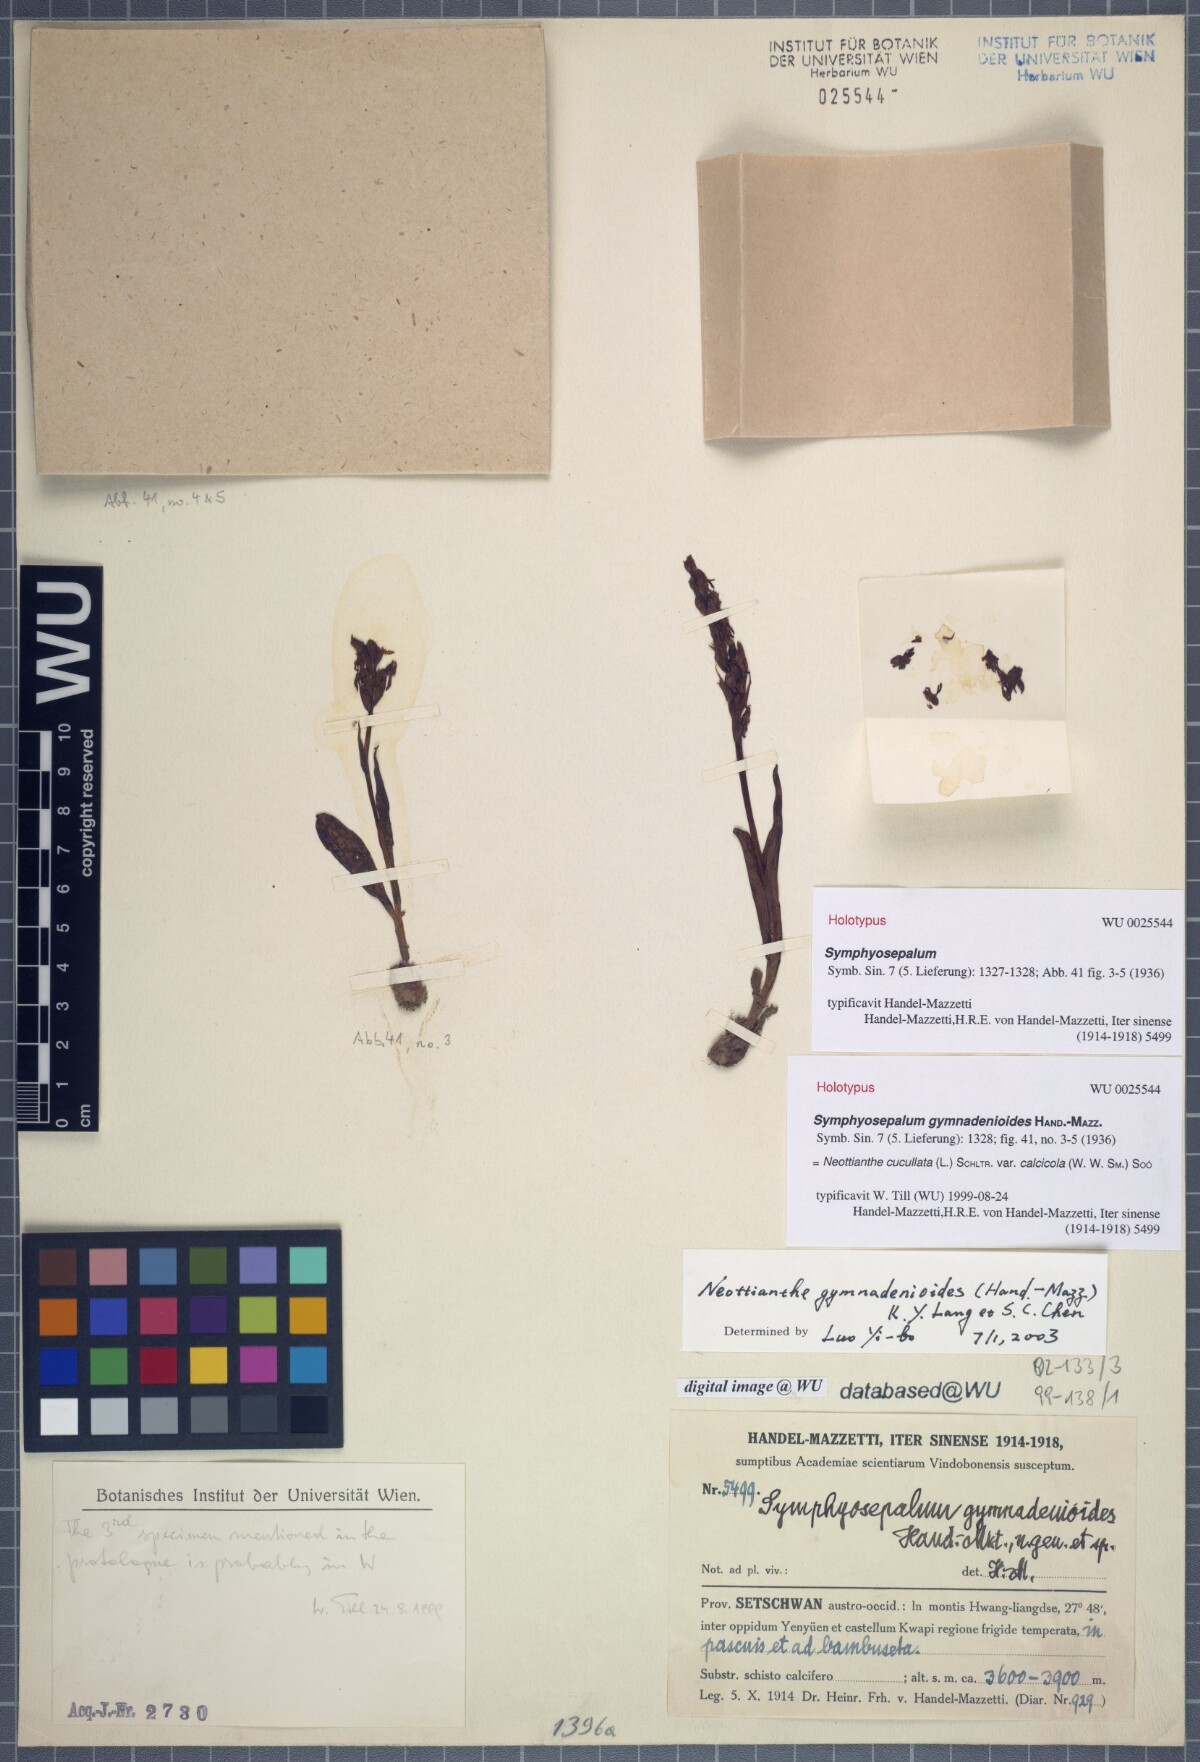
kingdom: Plantae
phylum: Tracheophyta
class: Liliopsida
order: Asparagales
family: Orchidaceae
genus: Hemipilia
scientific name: Hemipilia calcicola
